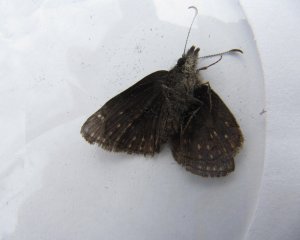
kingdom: Animalia
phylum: Arthropoda
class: Insecta
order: Lepidoptera
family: Hesperiidae
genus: Erynnis
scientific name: Erynnis icelus
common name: Dreamy Duskywing
